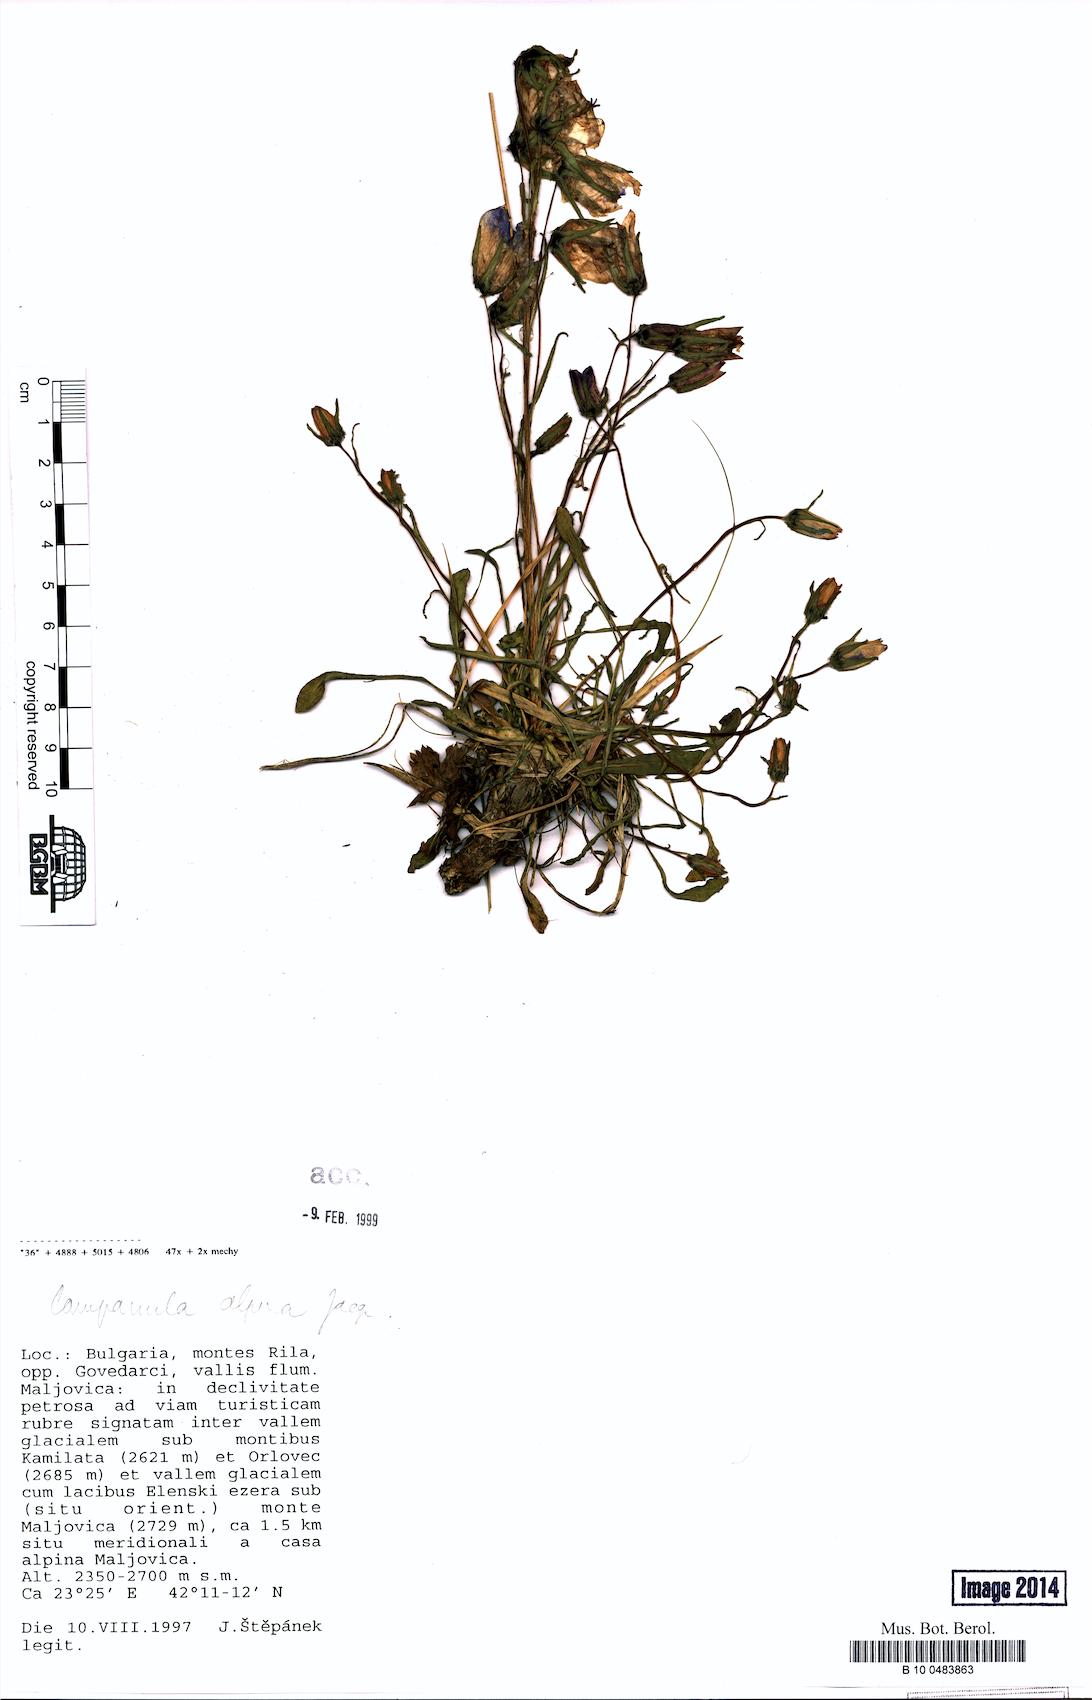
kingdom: Plantae
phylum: Tracheophyta
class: Magnoliopsida
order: Asterales
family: Campanulaceae
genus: Campanula
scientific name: Campanula alpina
